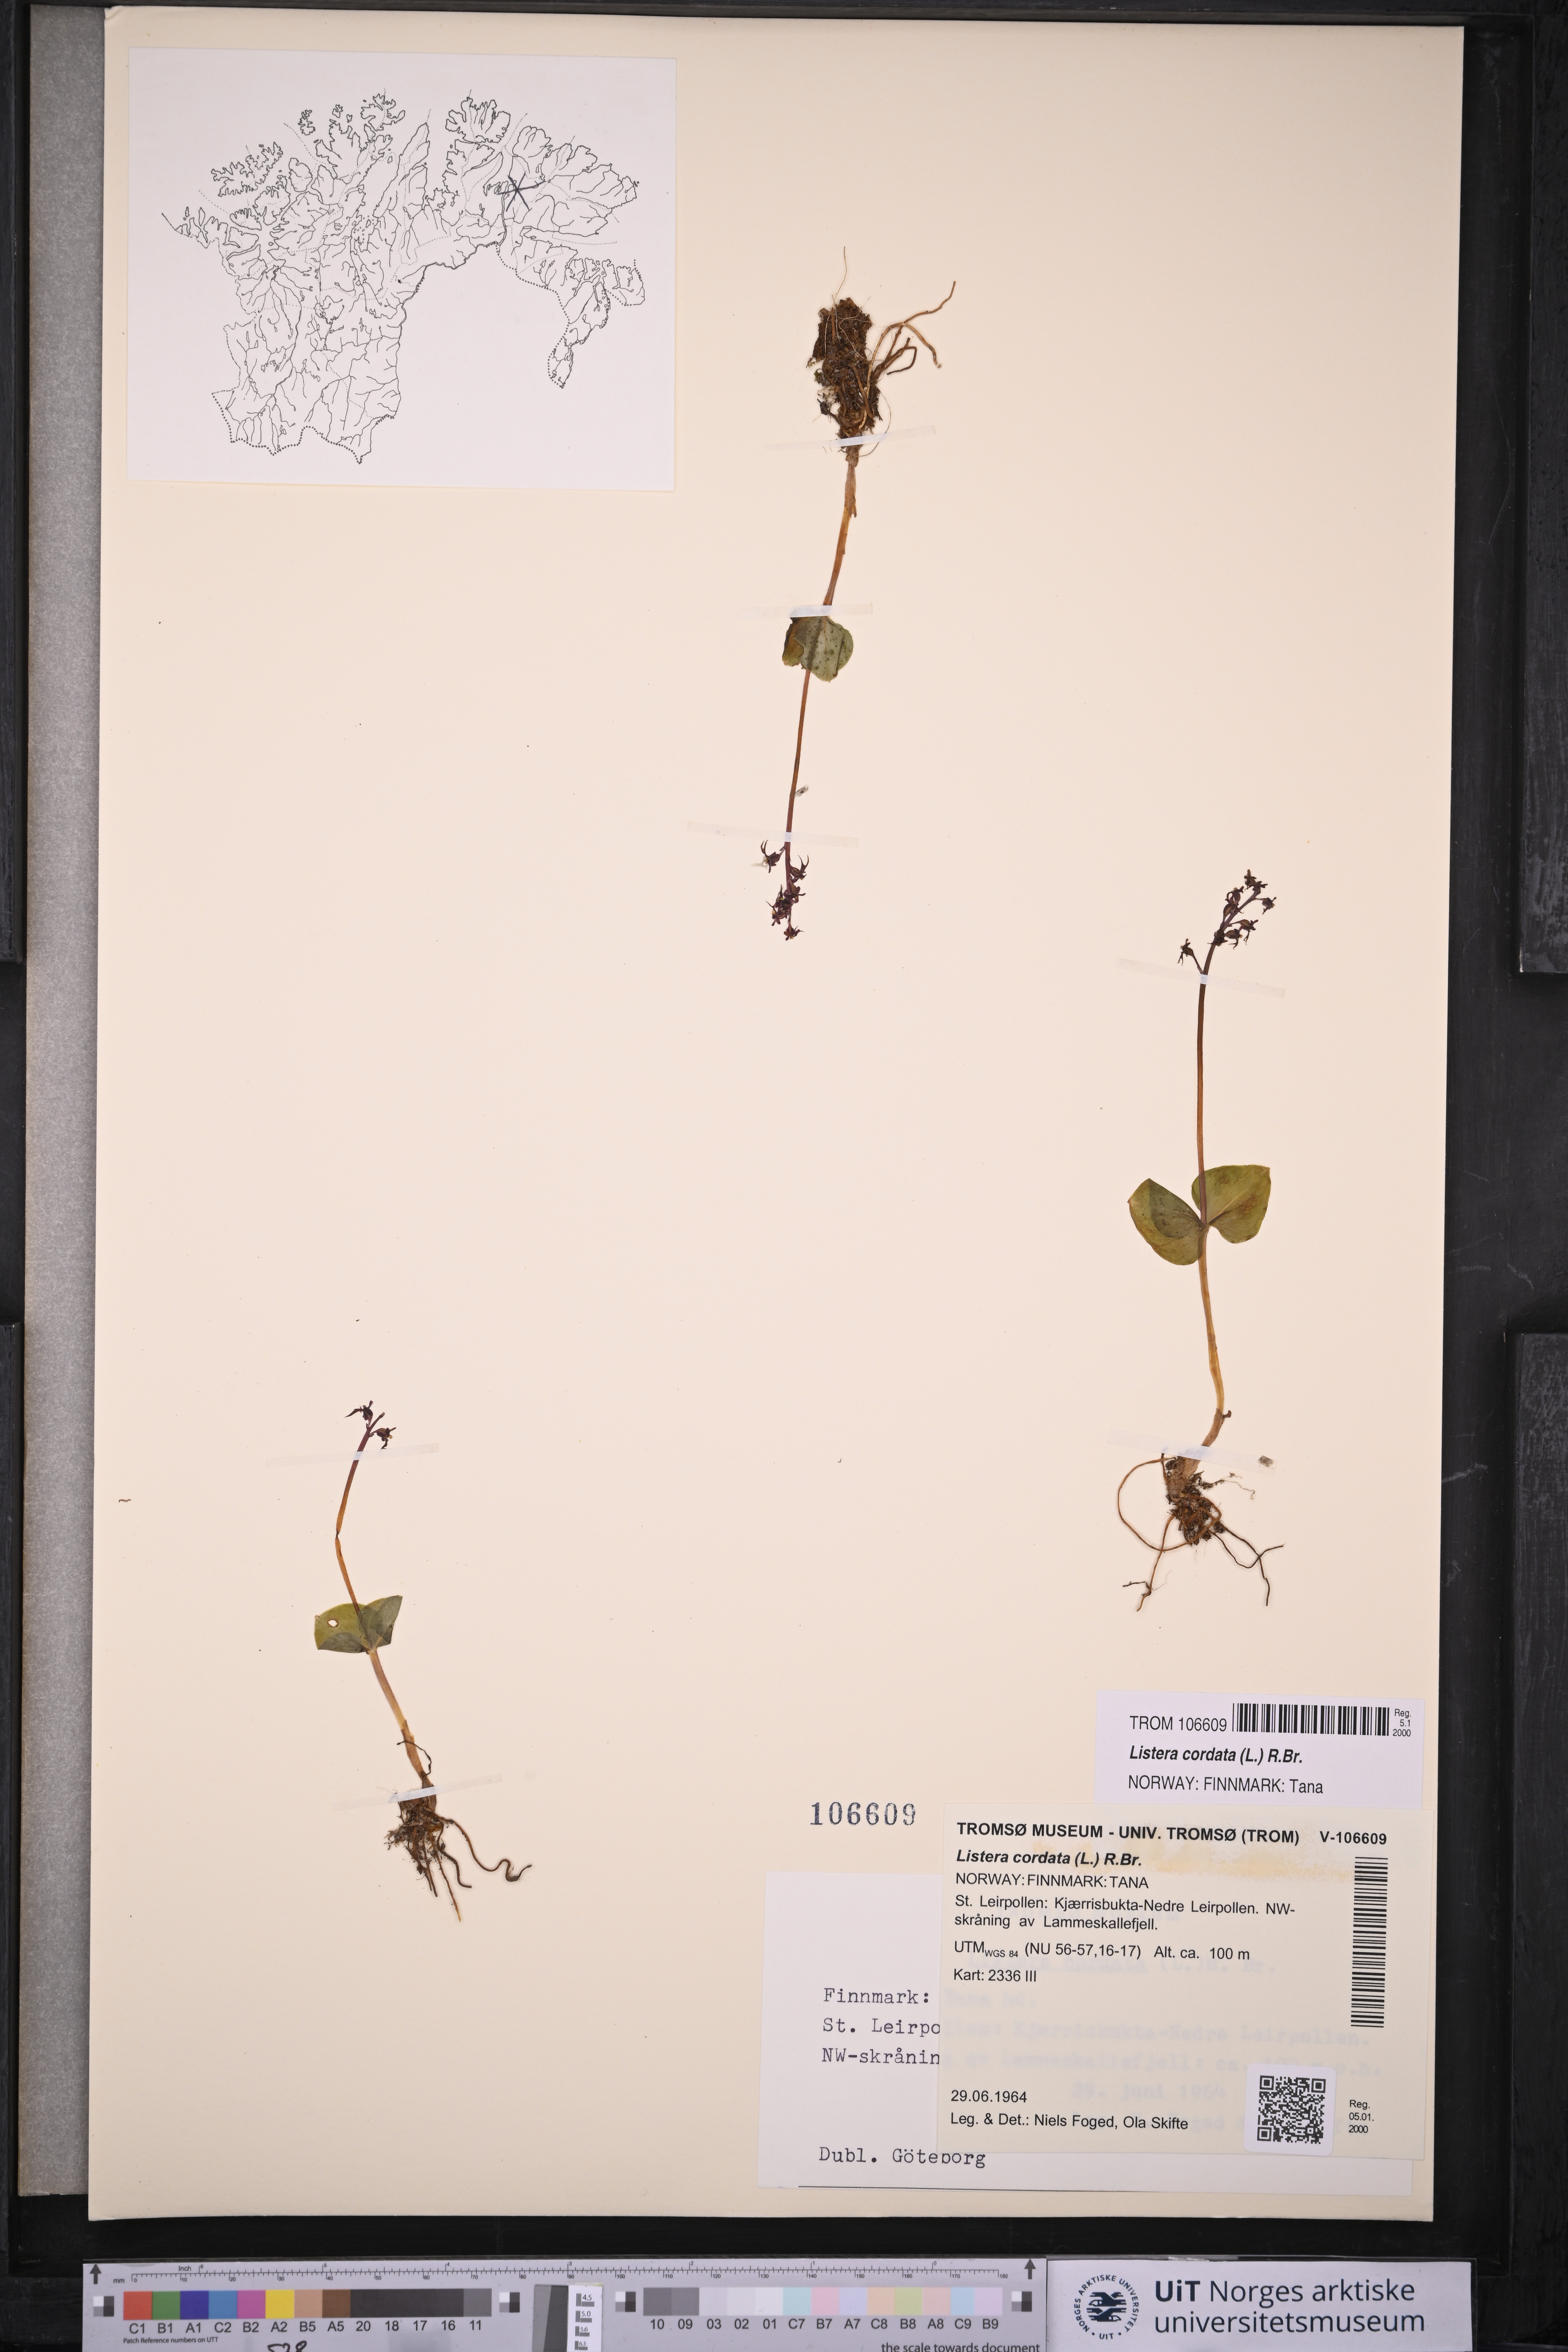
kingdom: Plantae
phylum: Tracheophyta
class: Liliopsida
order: Asparagales
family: Orchidaceae
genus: Neottia
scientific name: Neottia cordata
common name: Lesser twayblade
